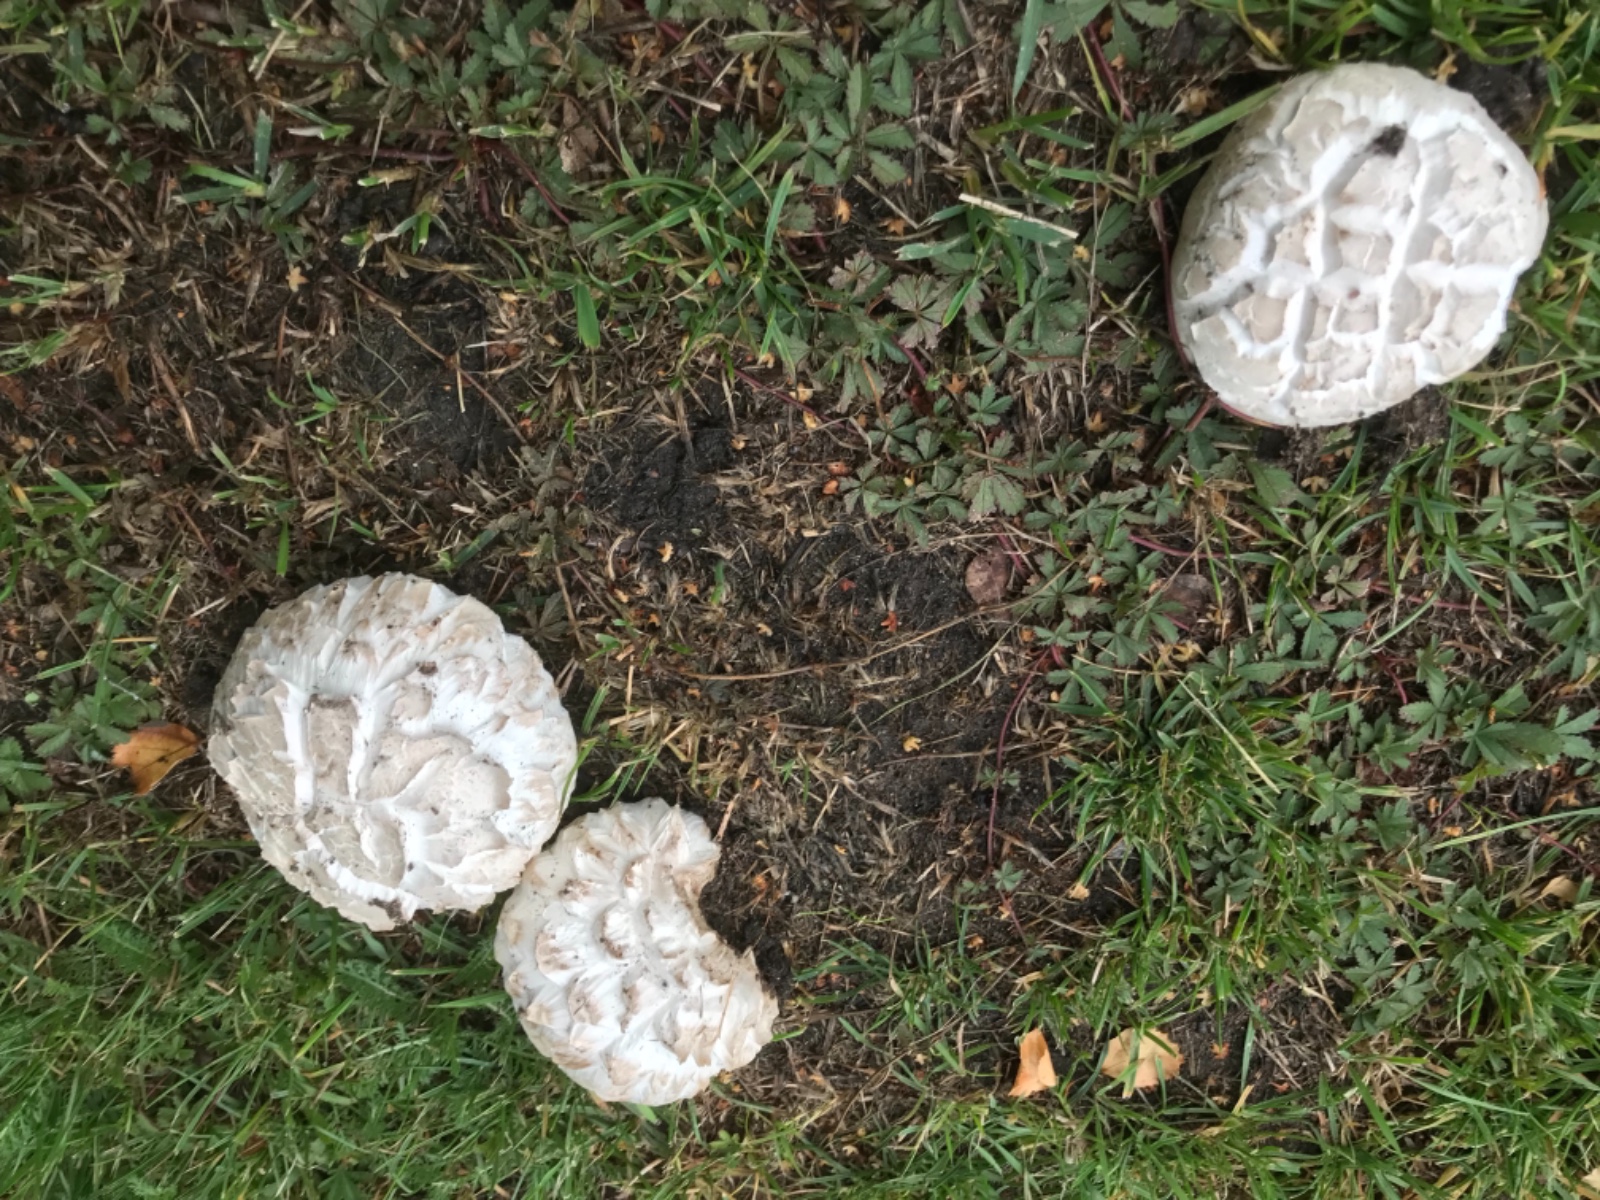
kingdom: Fungi
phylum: Basidiomycota
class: Agaricomycetes
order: Agaricales
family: Agaricaceae
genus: Agaricus
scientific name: Agaricus bernardii
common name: strandengs-champignon
